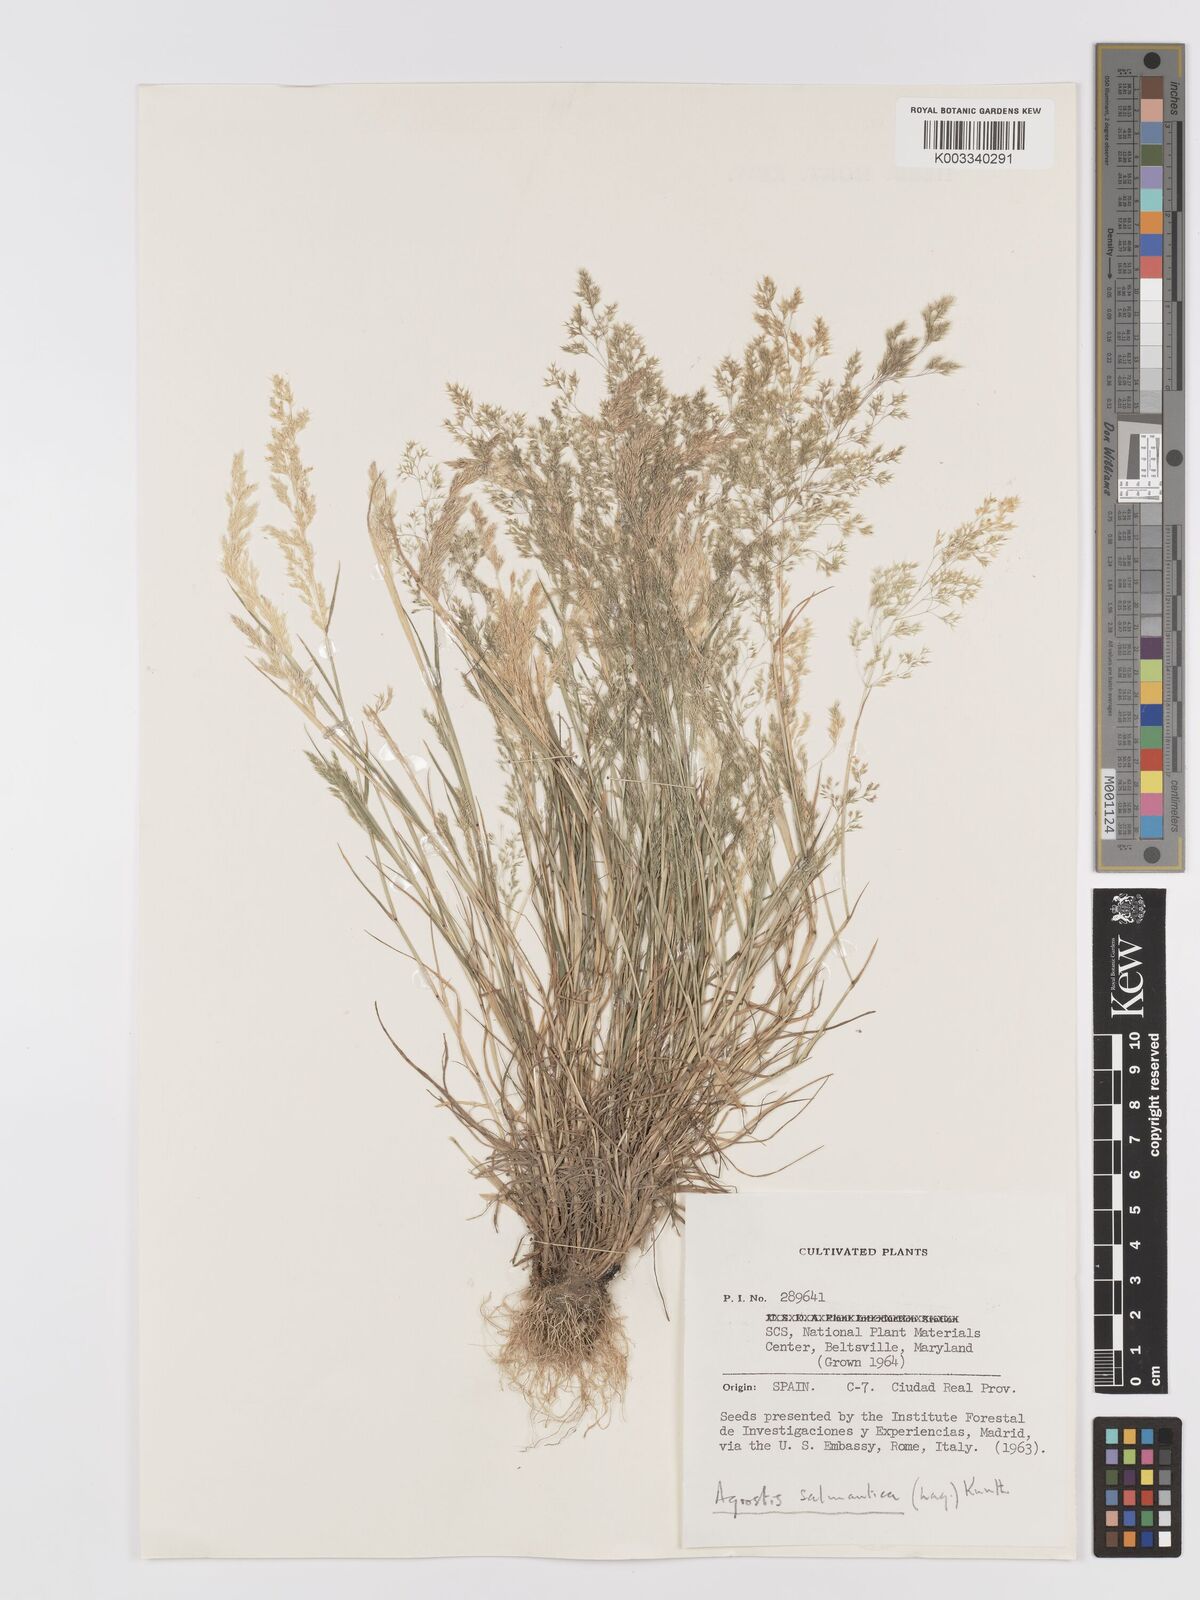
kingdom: Plantae
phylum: Tracheophyta
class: Liliopsida
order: Poales
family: Poaceae
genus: Agrostis
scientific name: Agrostis pourretii
